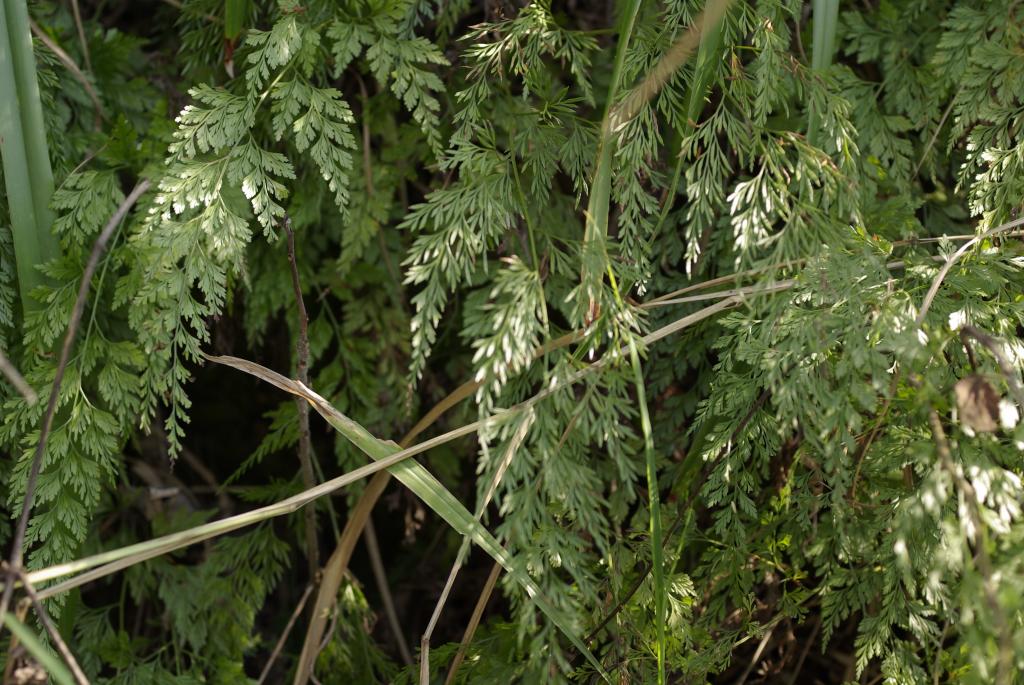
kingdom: Plantae
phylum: Tracheophyta
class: Polypodiopsida
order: Polypodiales
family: Pteridaceae
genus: Onychium
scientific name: Onychium japonicum
